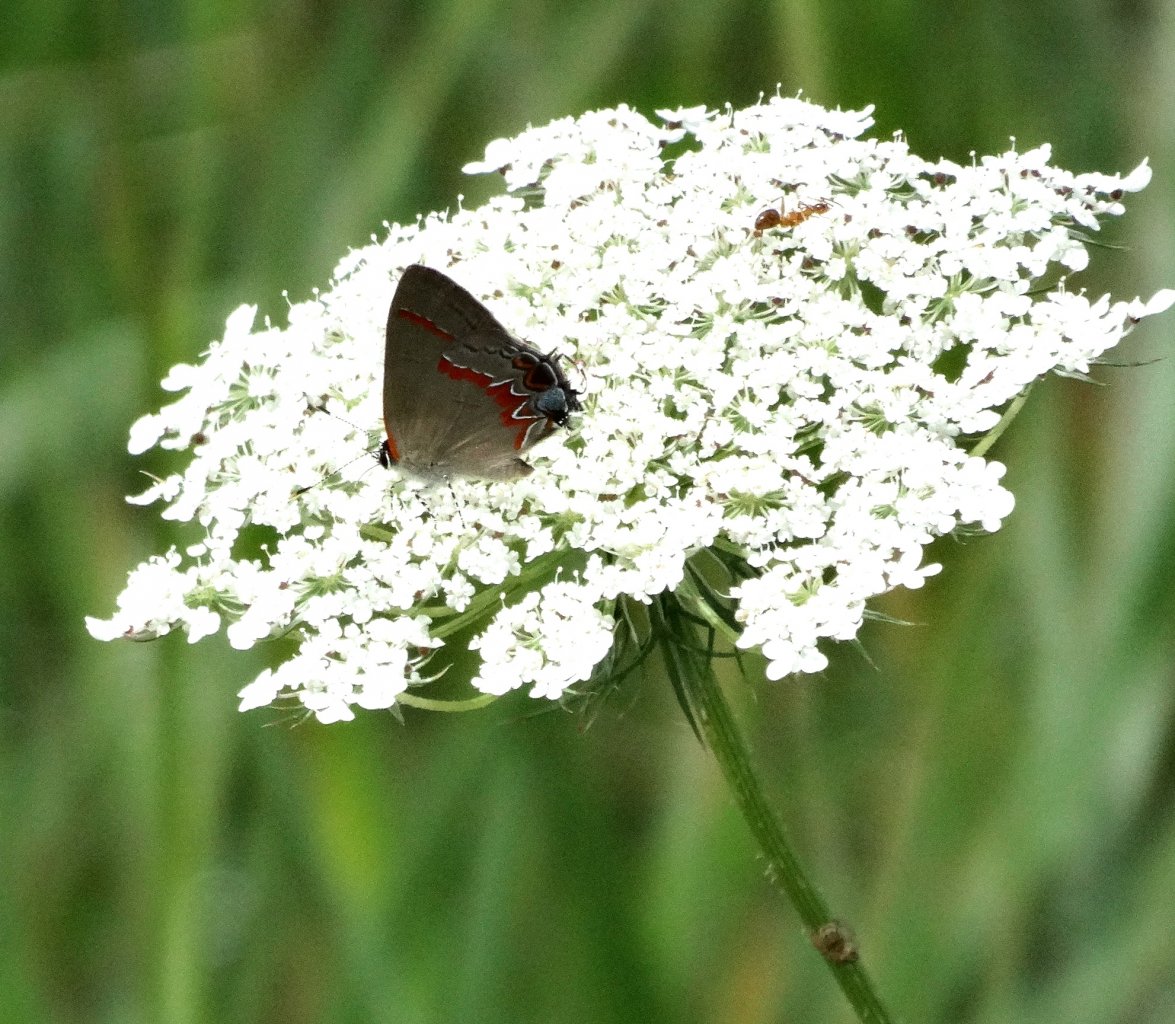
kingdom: Animalia
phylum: Arthropoda
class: Insecta
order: Lepidoptera
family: Lycaenidae
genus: Calycopis
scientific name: Calycopis cecrops
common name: Red-banded Hairstreak
